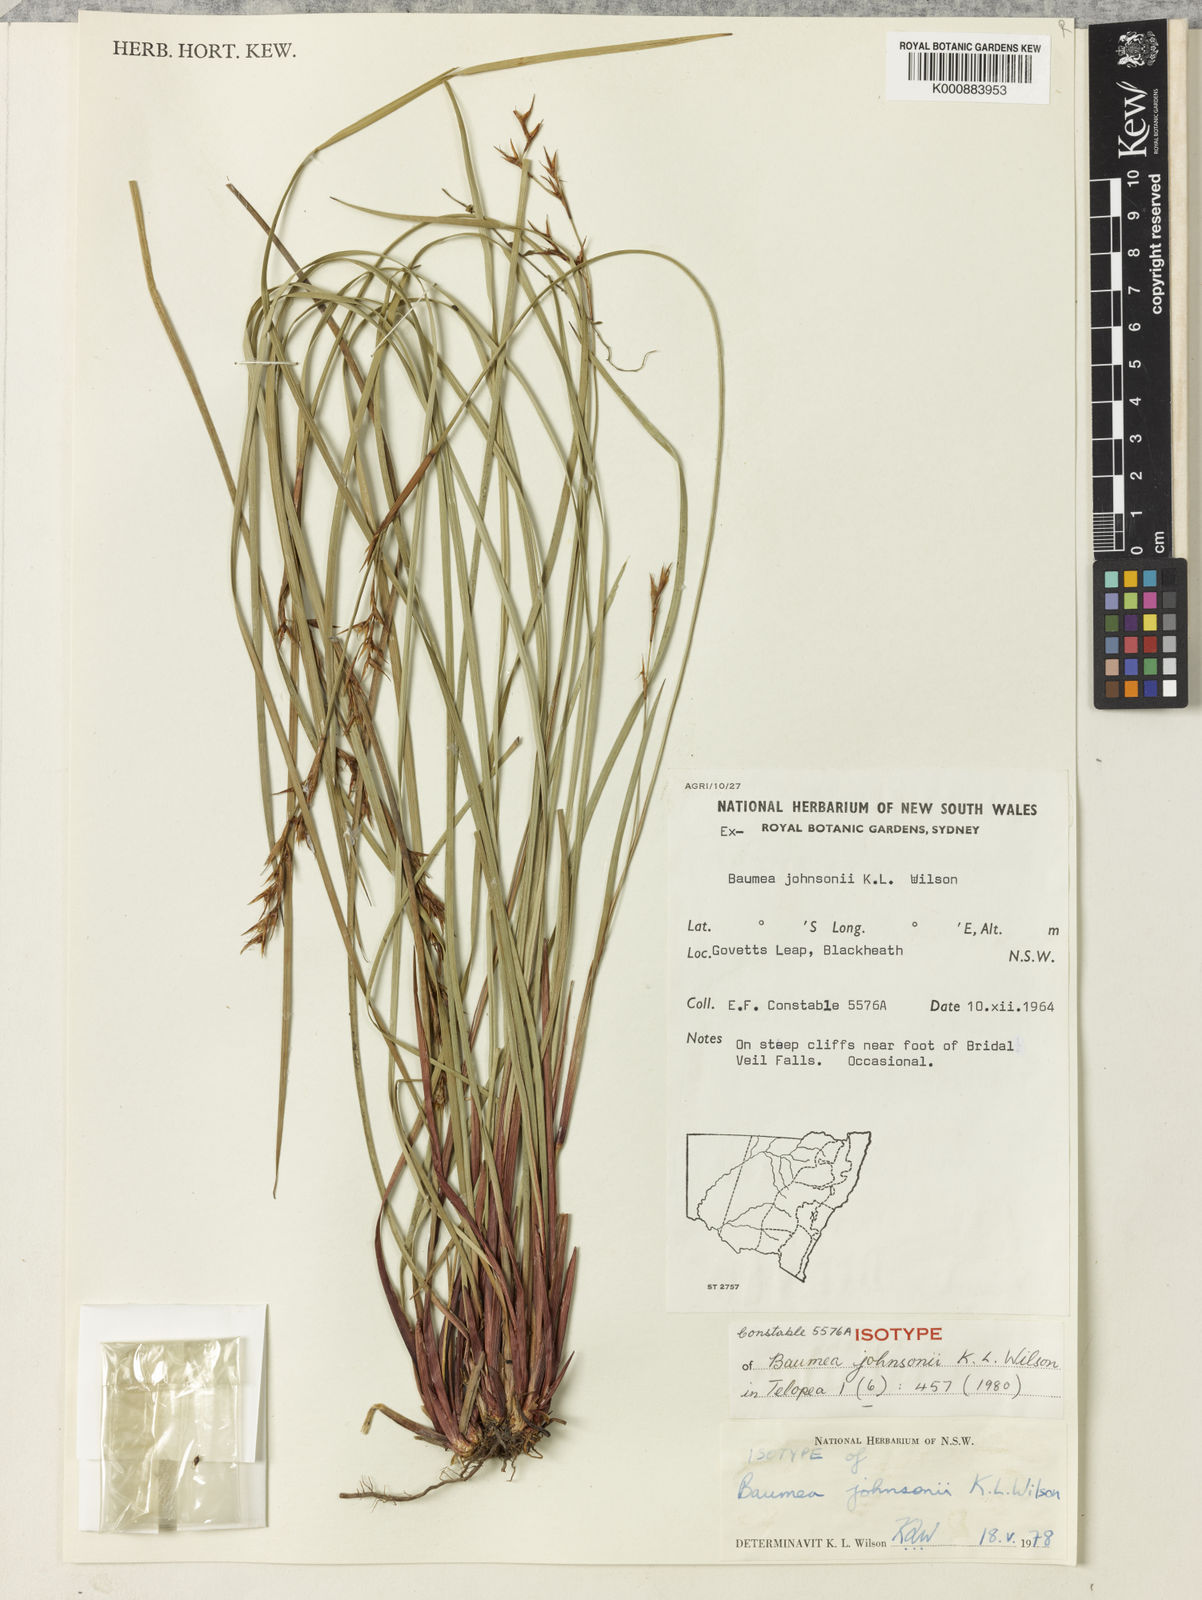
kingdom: Plantae
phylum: Tracheophyta
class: Liliopsida
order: Poales
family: Cyperaceae
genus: Machaerina
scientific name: Machaerina johnsonii
